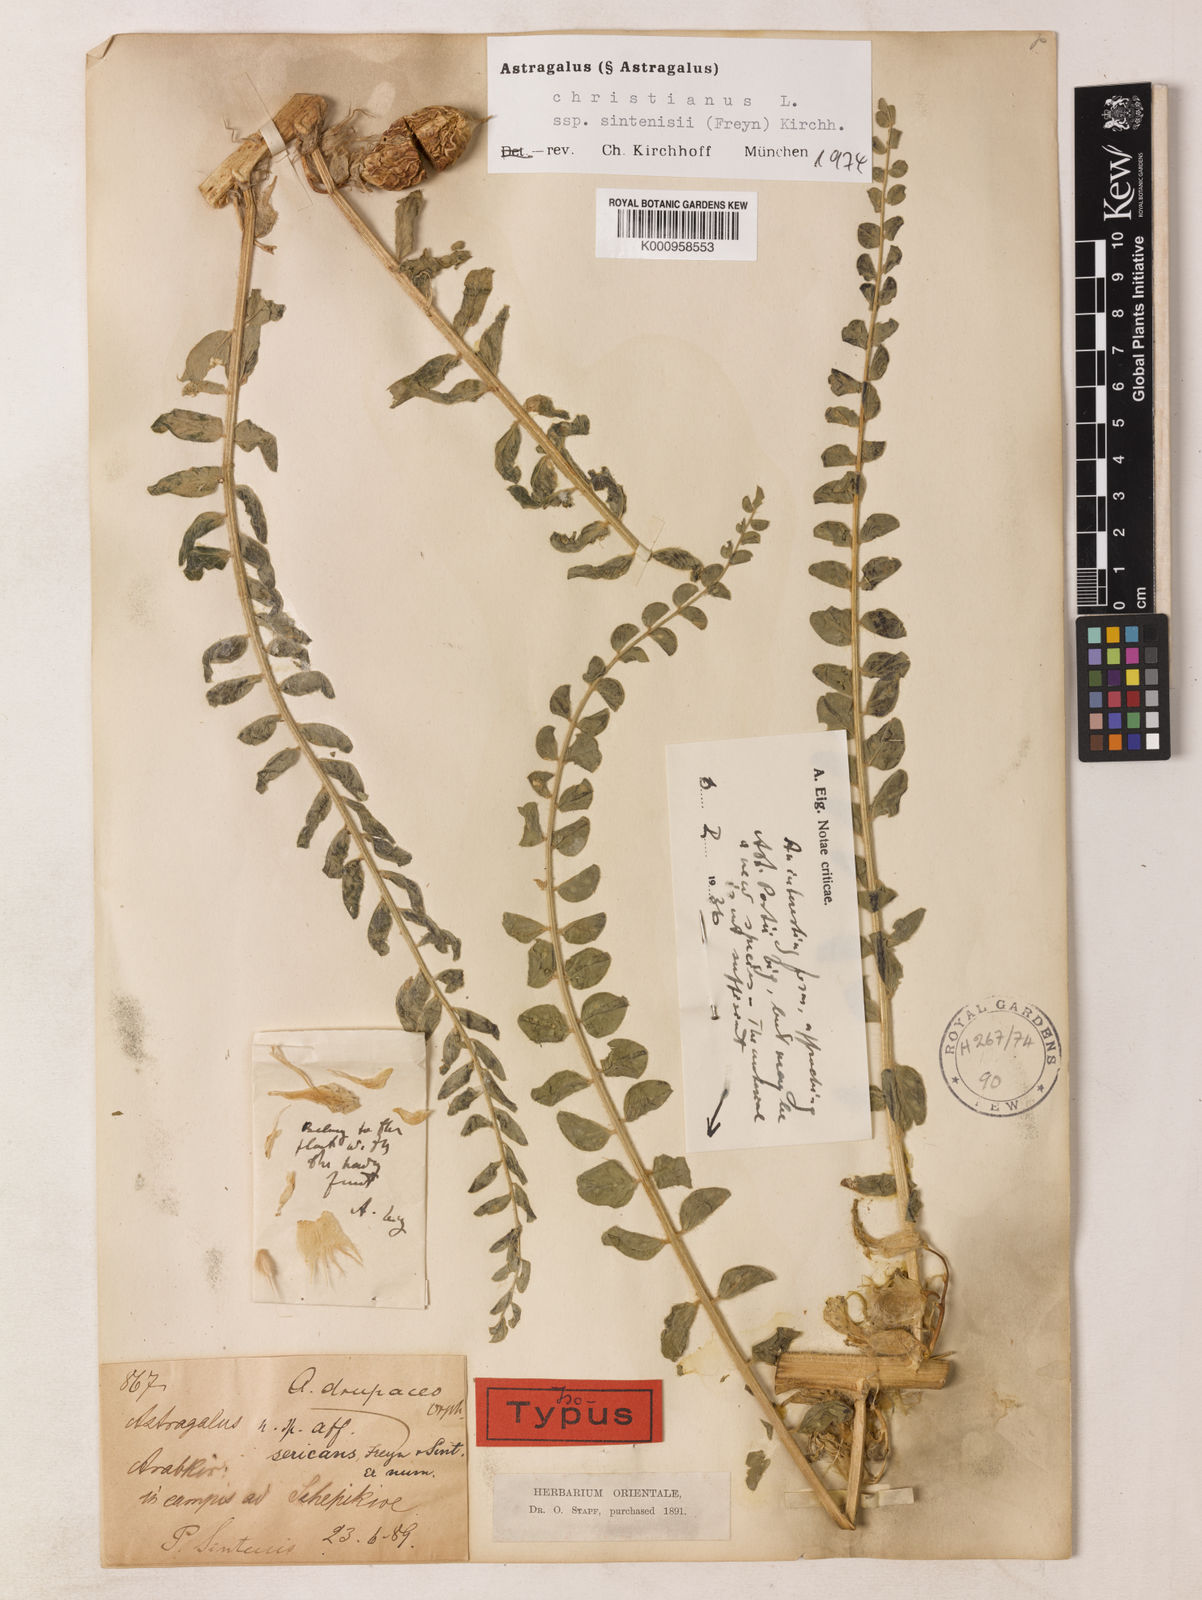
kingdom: Plantae
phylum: Tracheophyta
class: Magnoliopsida
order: Fabales
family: Fabaceae
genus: Astragalus
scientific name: Astragalus christianus
